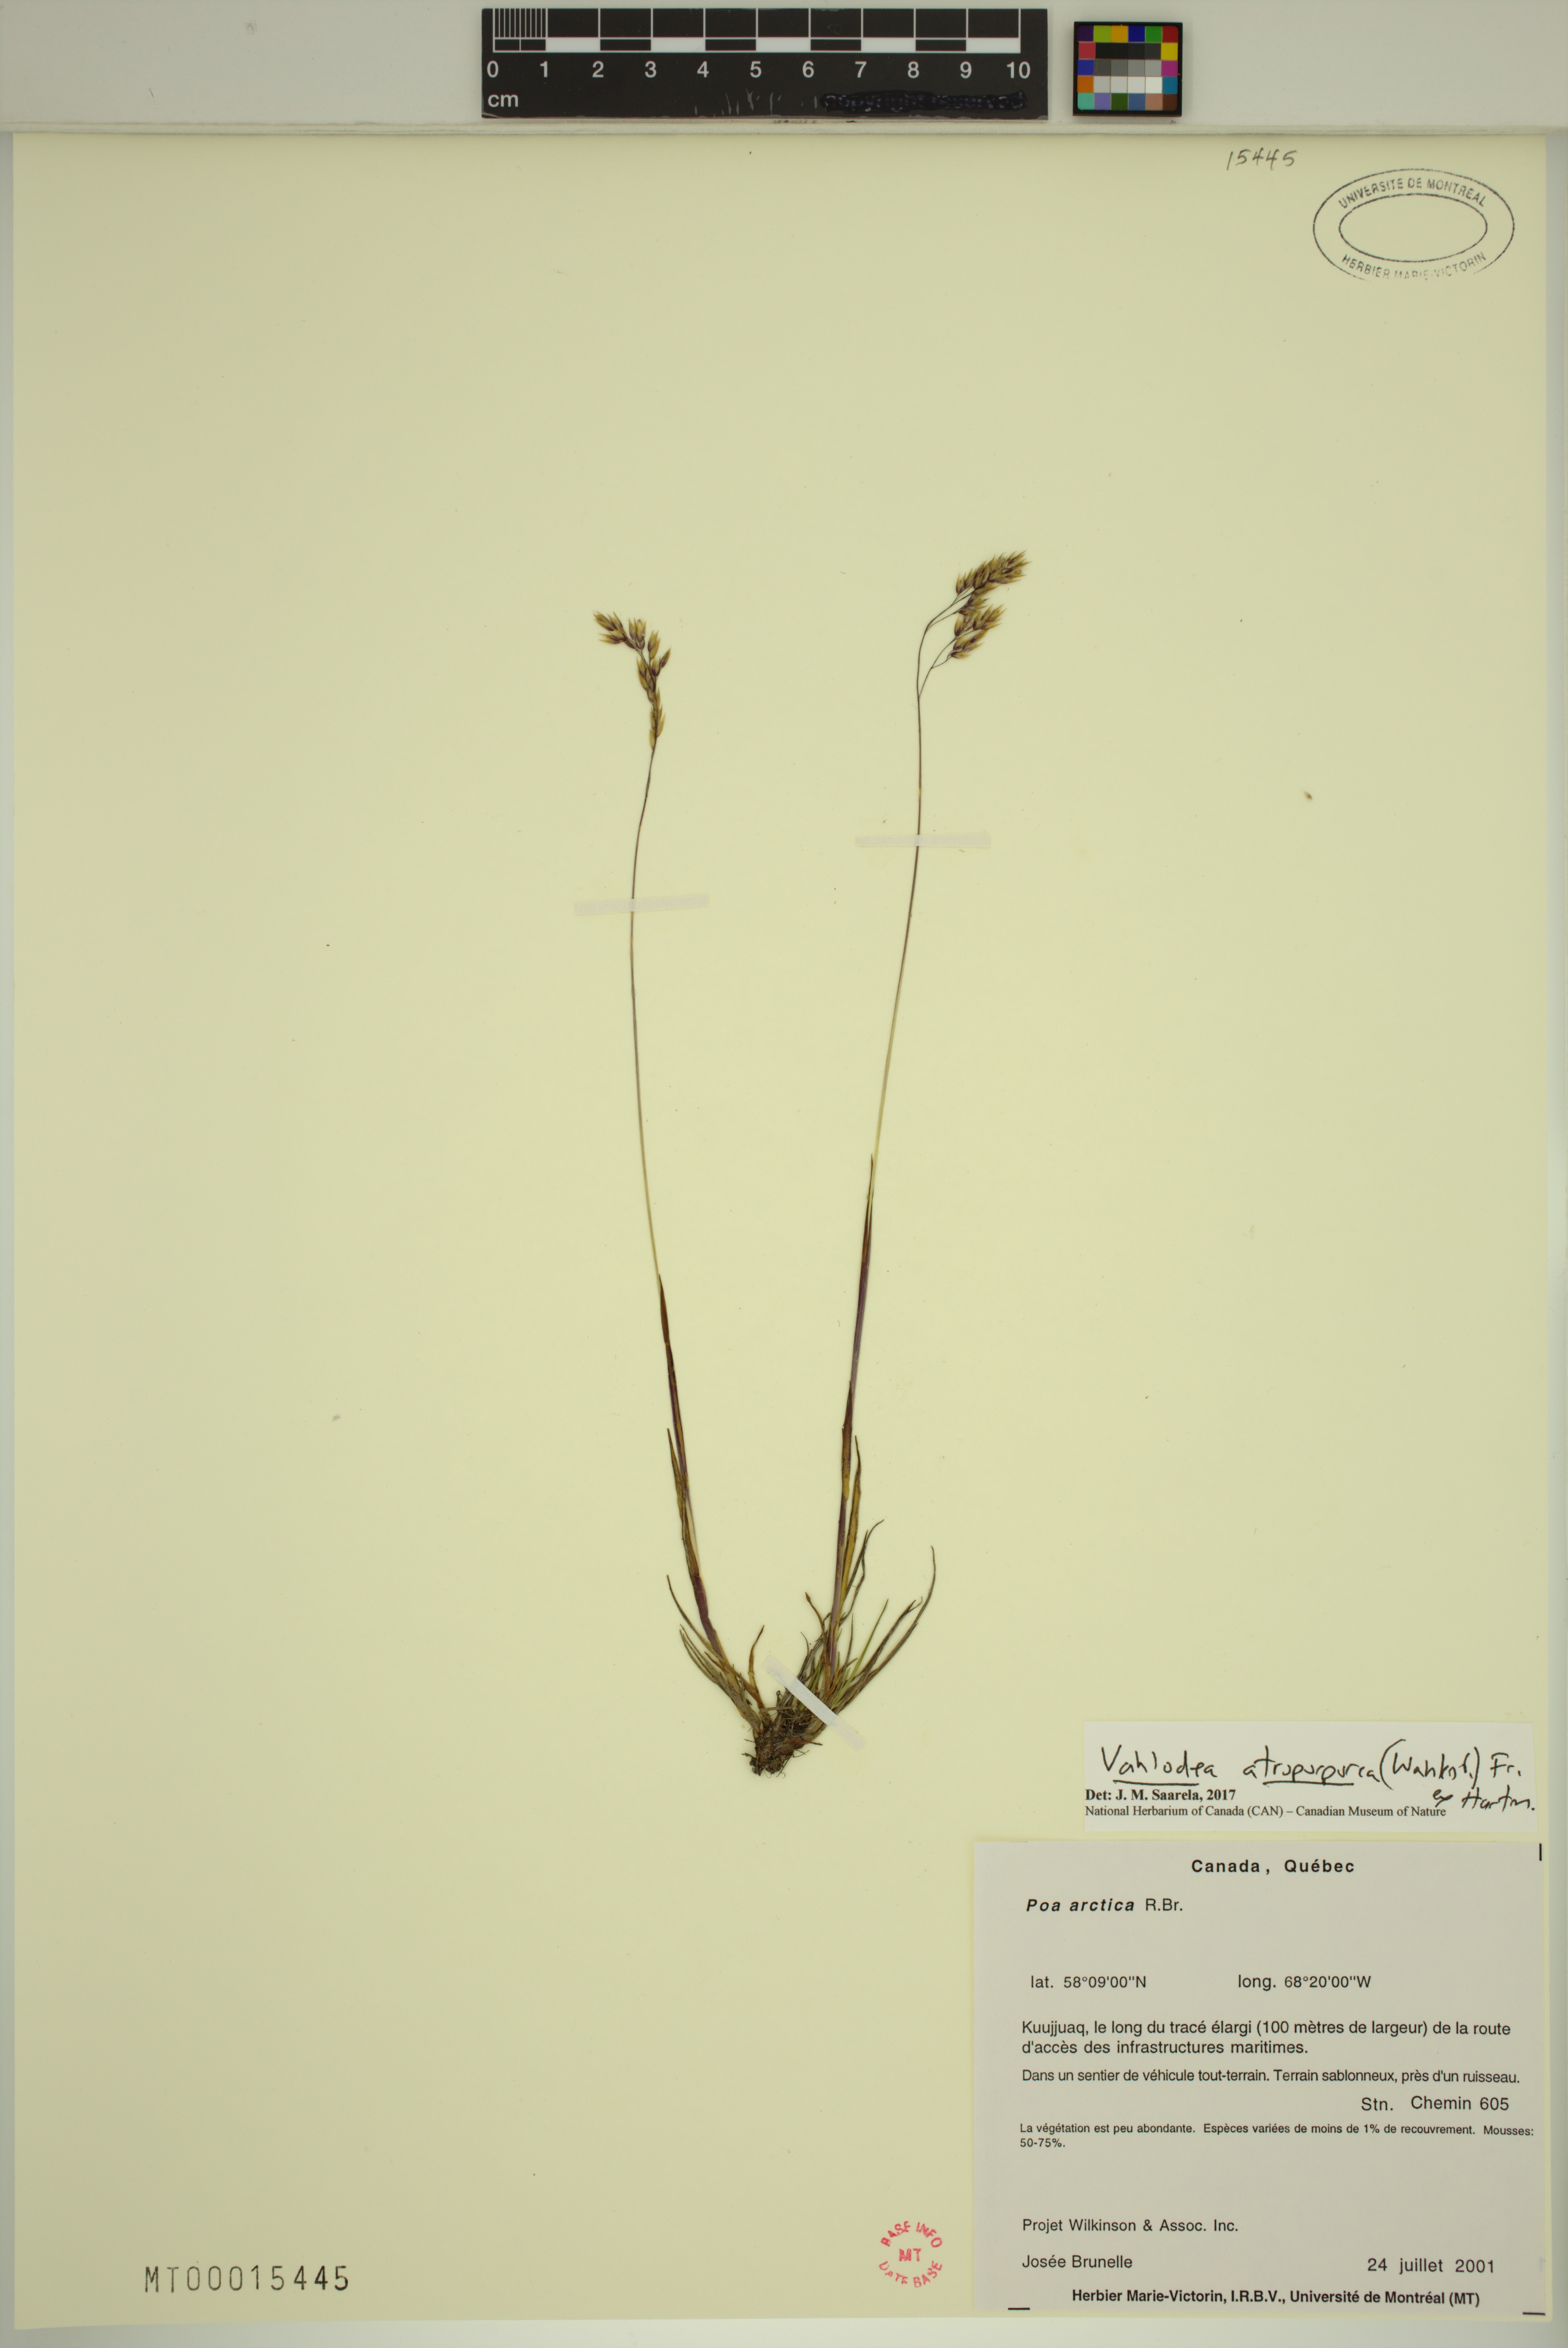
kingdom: Plantae
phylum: Tracheophyta
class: Liliopsida
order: Poales
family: Poaceae
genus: Vahlodea
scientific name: Vahlodea atropurpurea
